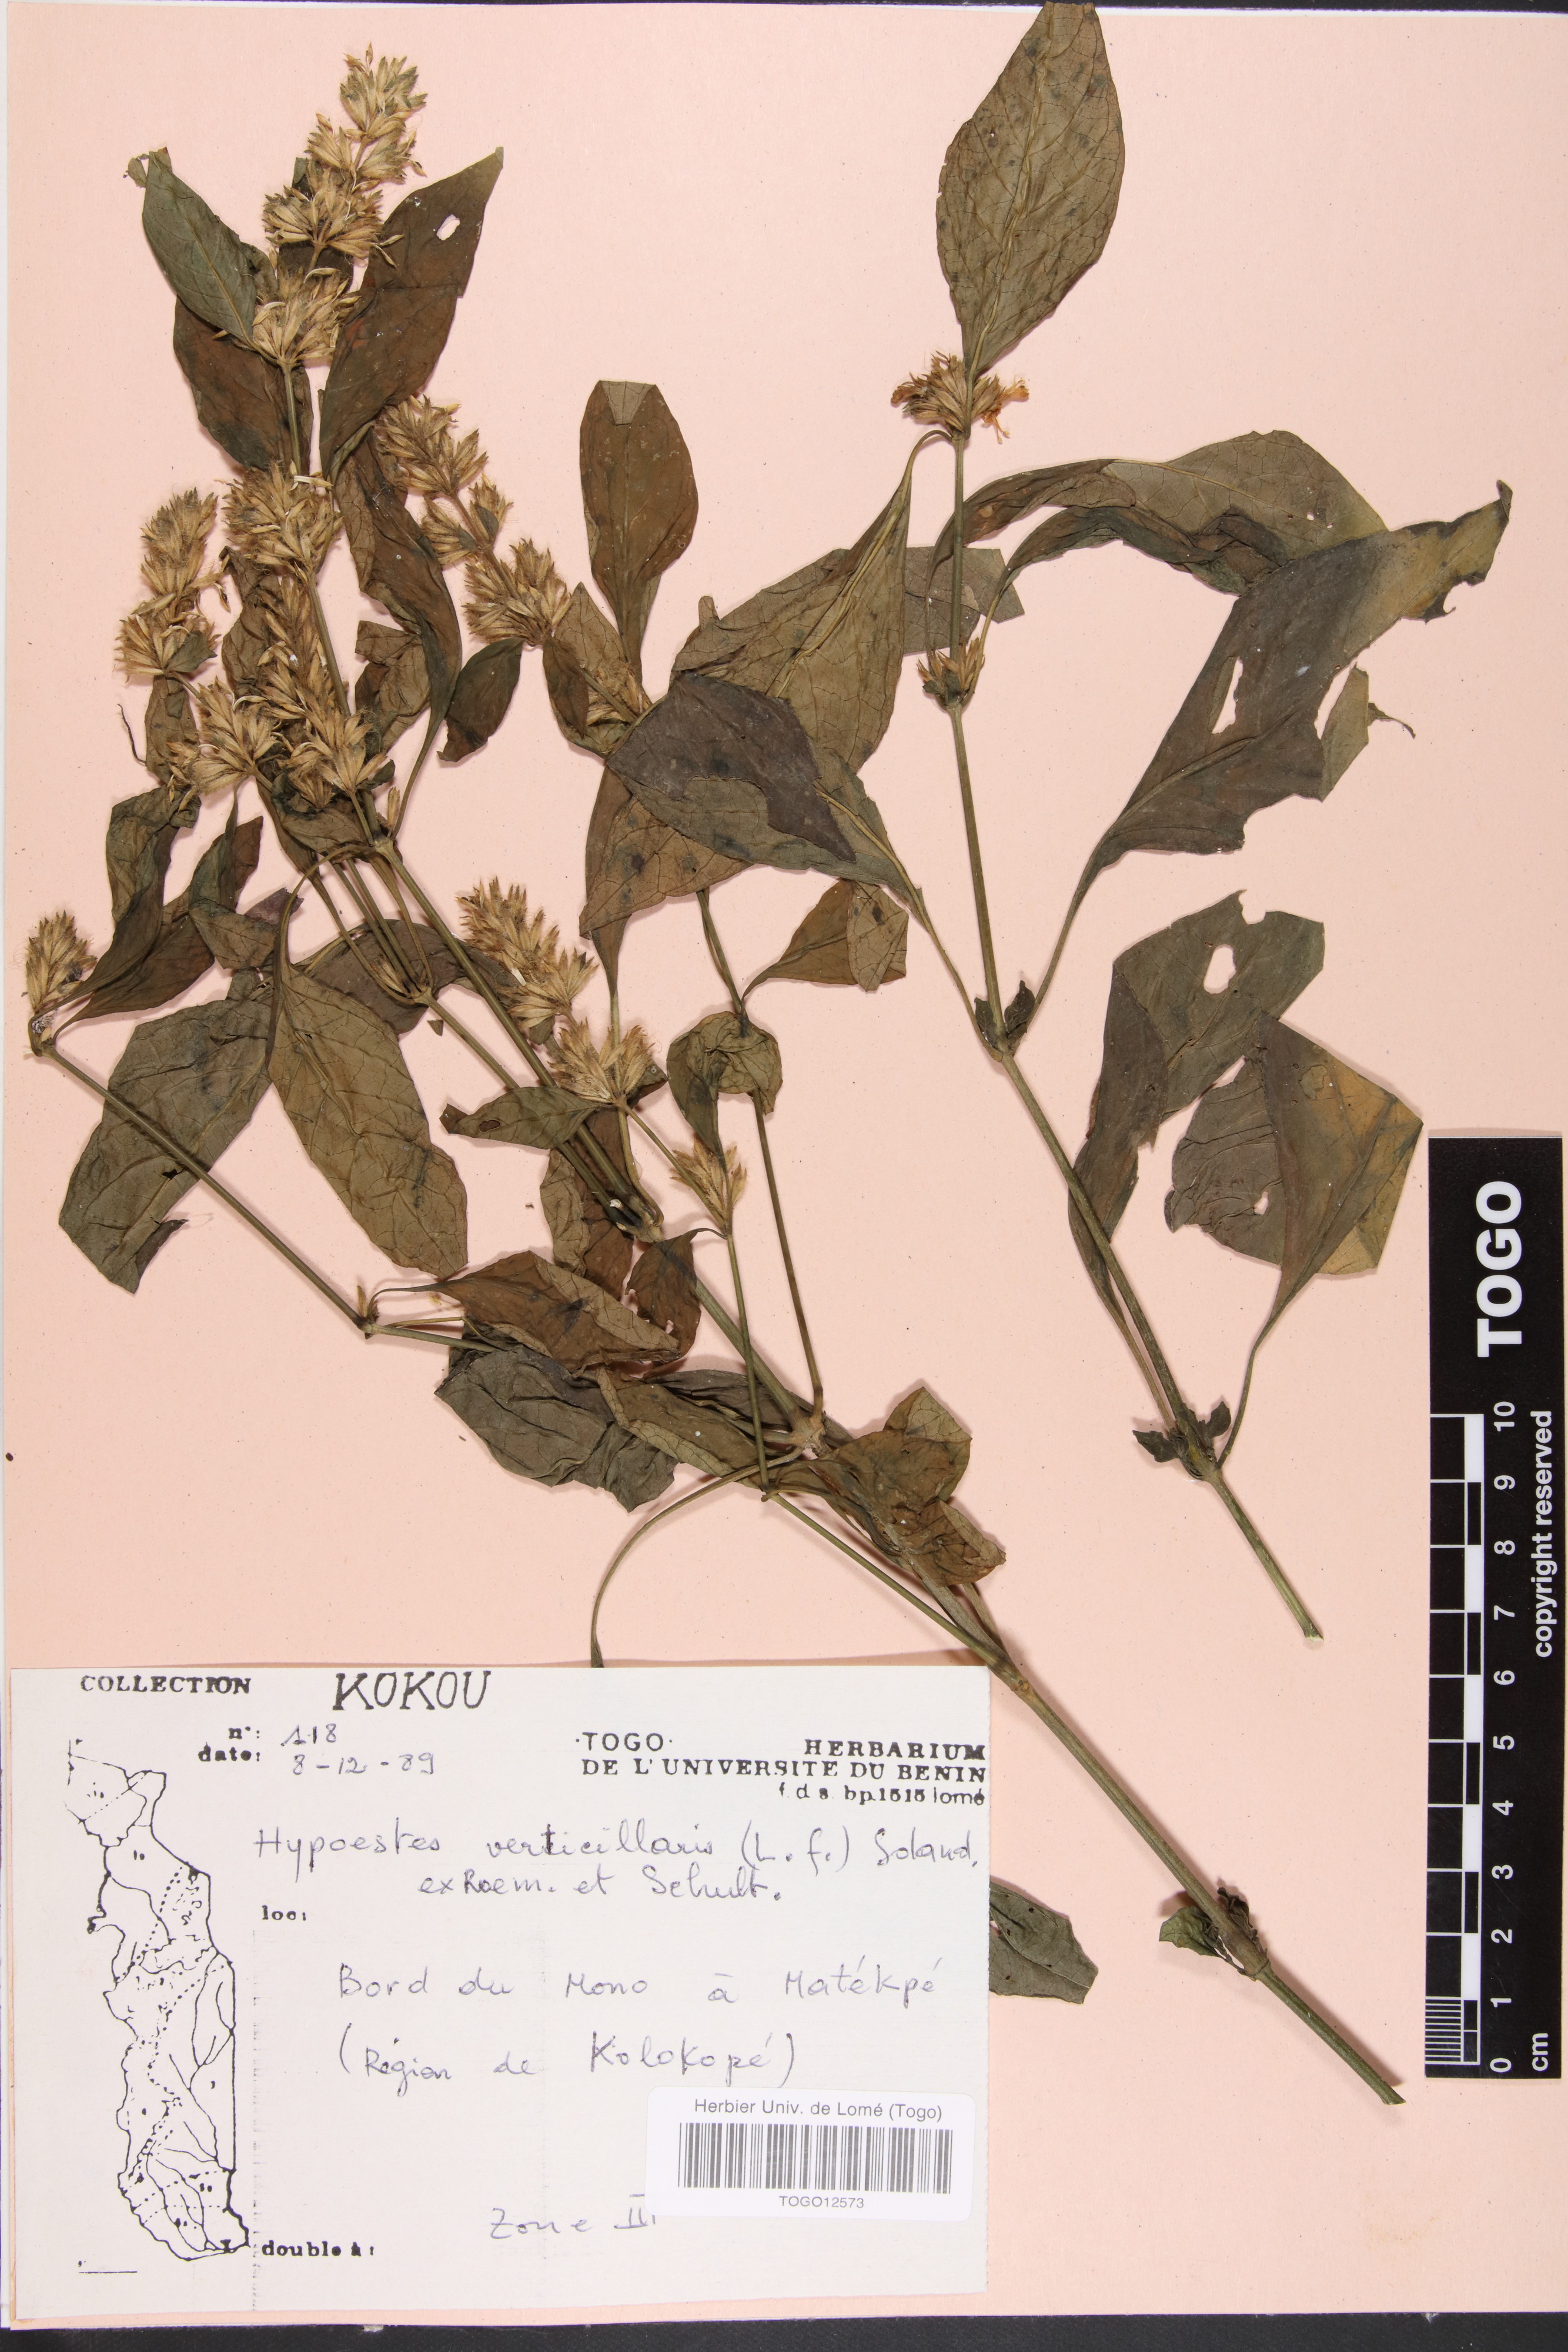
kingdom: Plantae
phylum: Tracheophyta
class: Magnoliopsida
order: Lamiales
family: Acanthaceae
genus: Hypoestes
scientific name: Hypoestes aristata
